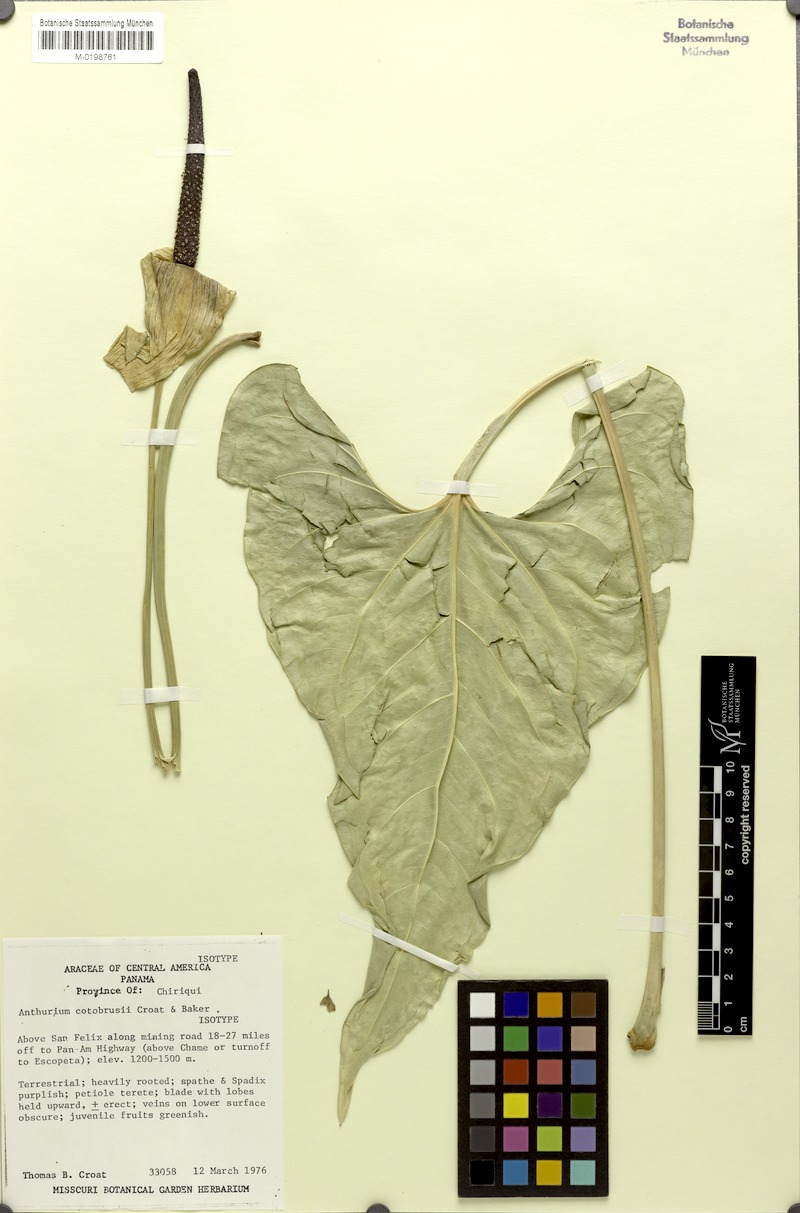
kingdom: Plantae
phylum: Tracheophyta
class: Liliopsida
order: Alismatales
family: Araceae
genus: Anthurium
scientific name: Anthurium cotobrusii
